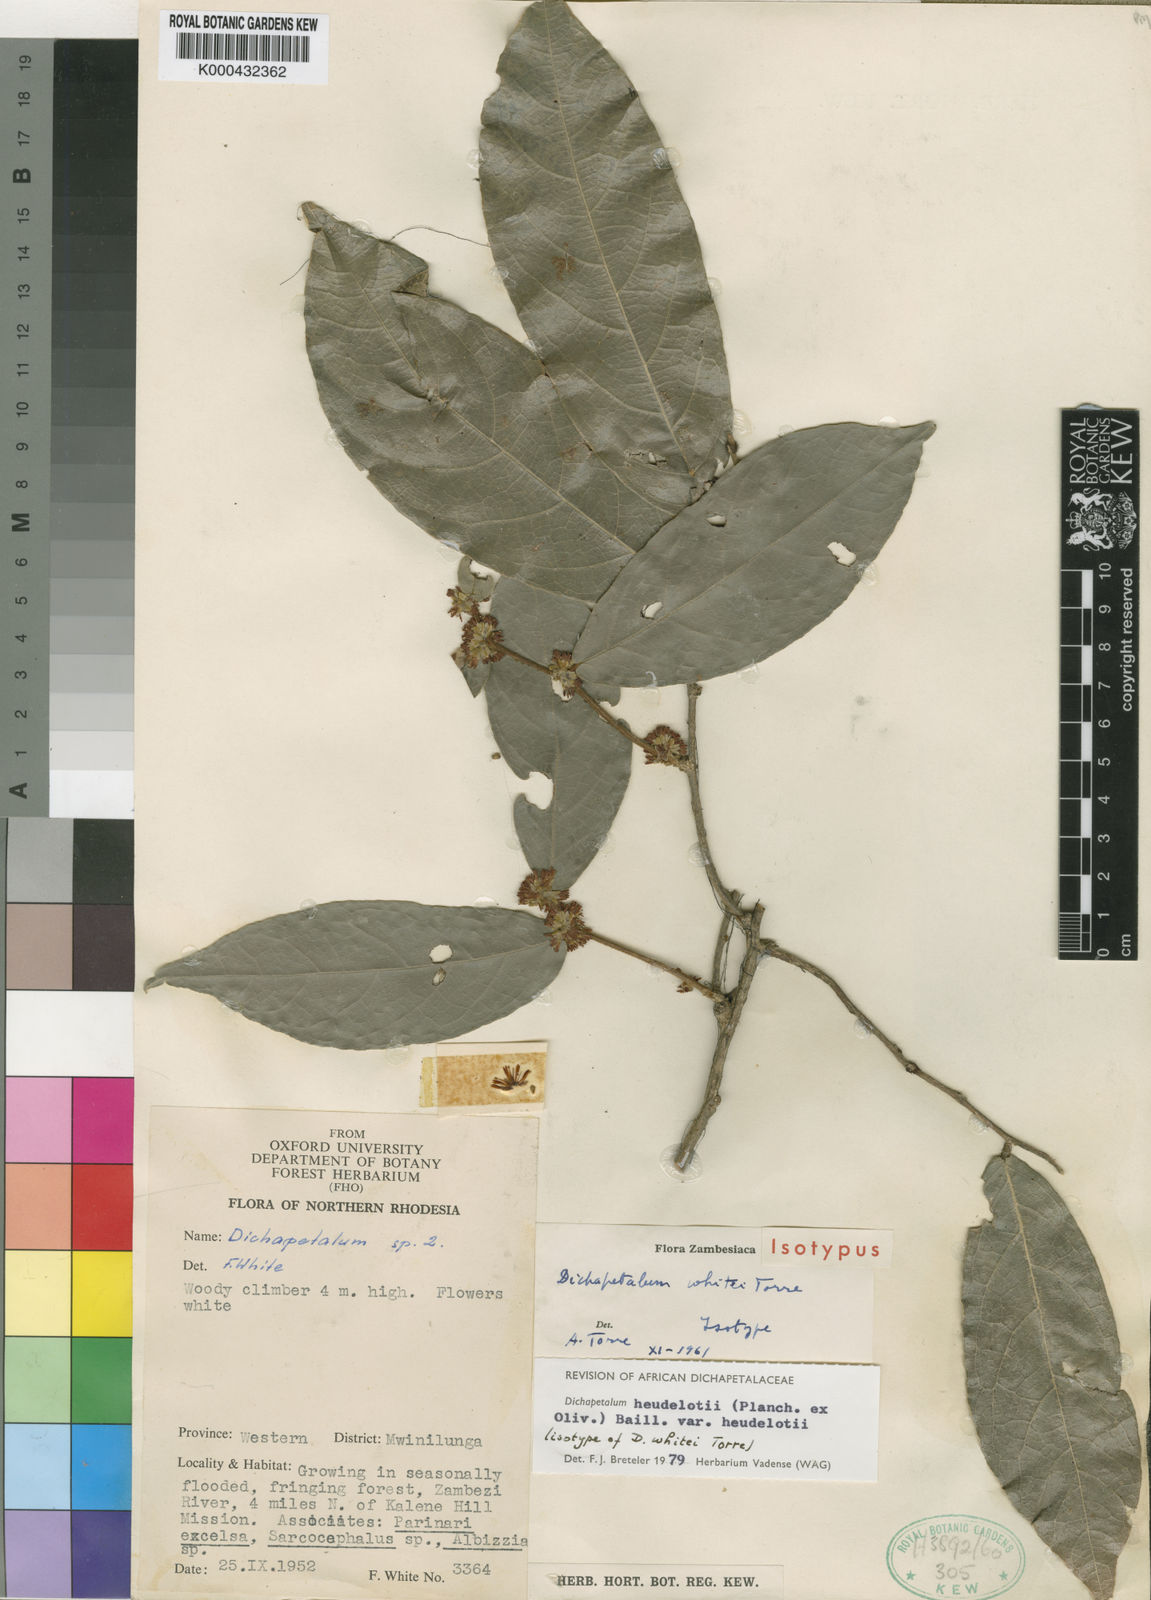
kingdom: Plantae
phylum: Tracheophyta
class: Magnoliopsida
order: Malpighiales
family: Dichapetalaceae
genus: Dichapetalum
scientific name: Dichapetalum heudelotii
